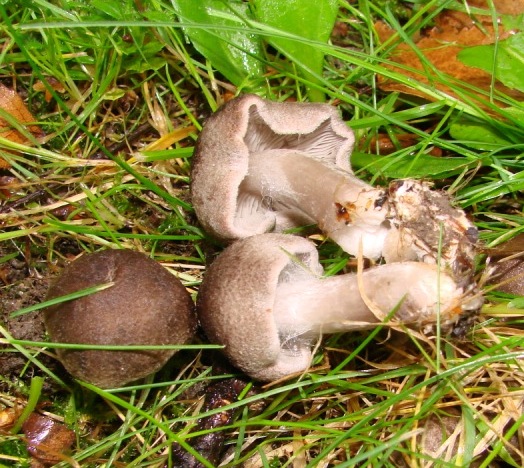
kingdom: Fungi
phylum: Basidiomycota
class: Agaricomycetes
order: Agaricales
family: Tricholomataceae
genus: Tricholoma
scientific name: Tricholoma argyraceum
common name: slør-ridderhat
